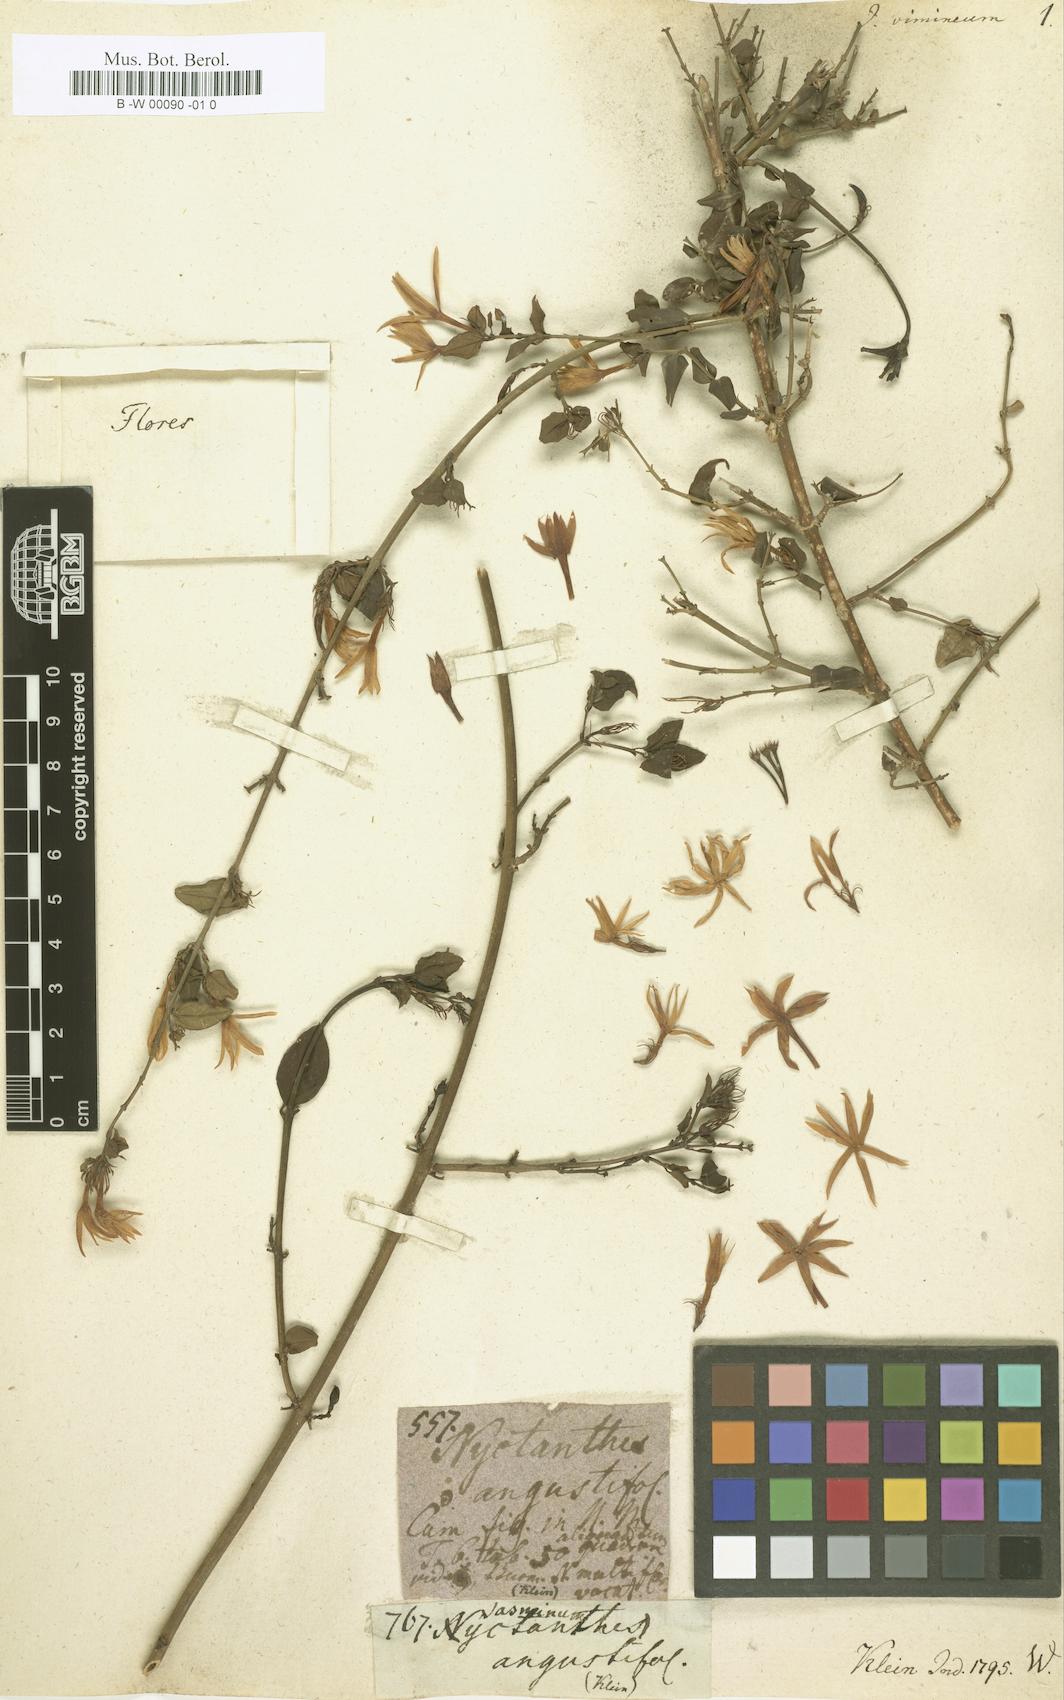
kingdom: Plantae
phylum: Tracheophyta
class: Magnoliopsida
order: Lamiales
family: Oleaceae
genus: Jasminum
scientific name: Jasminum angustifolium
